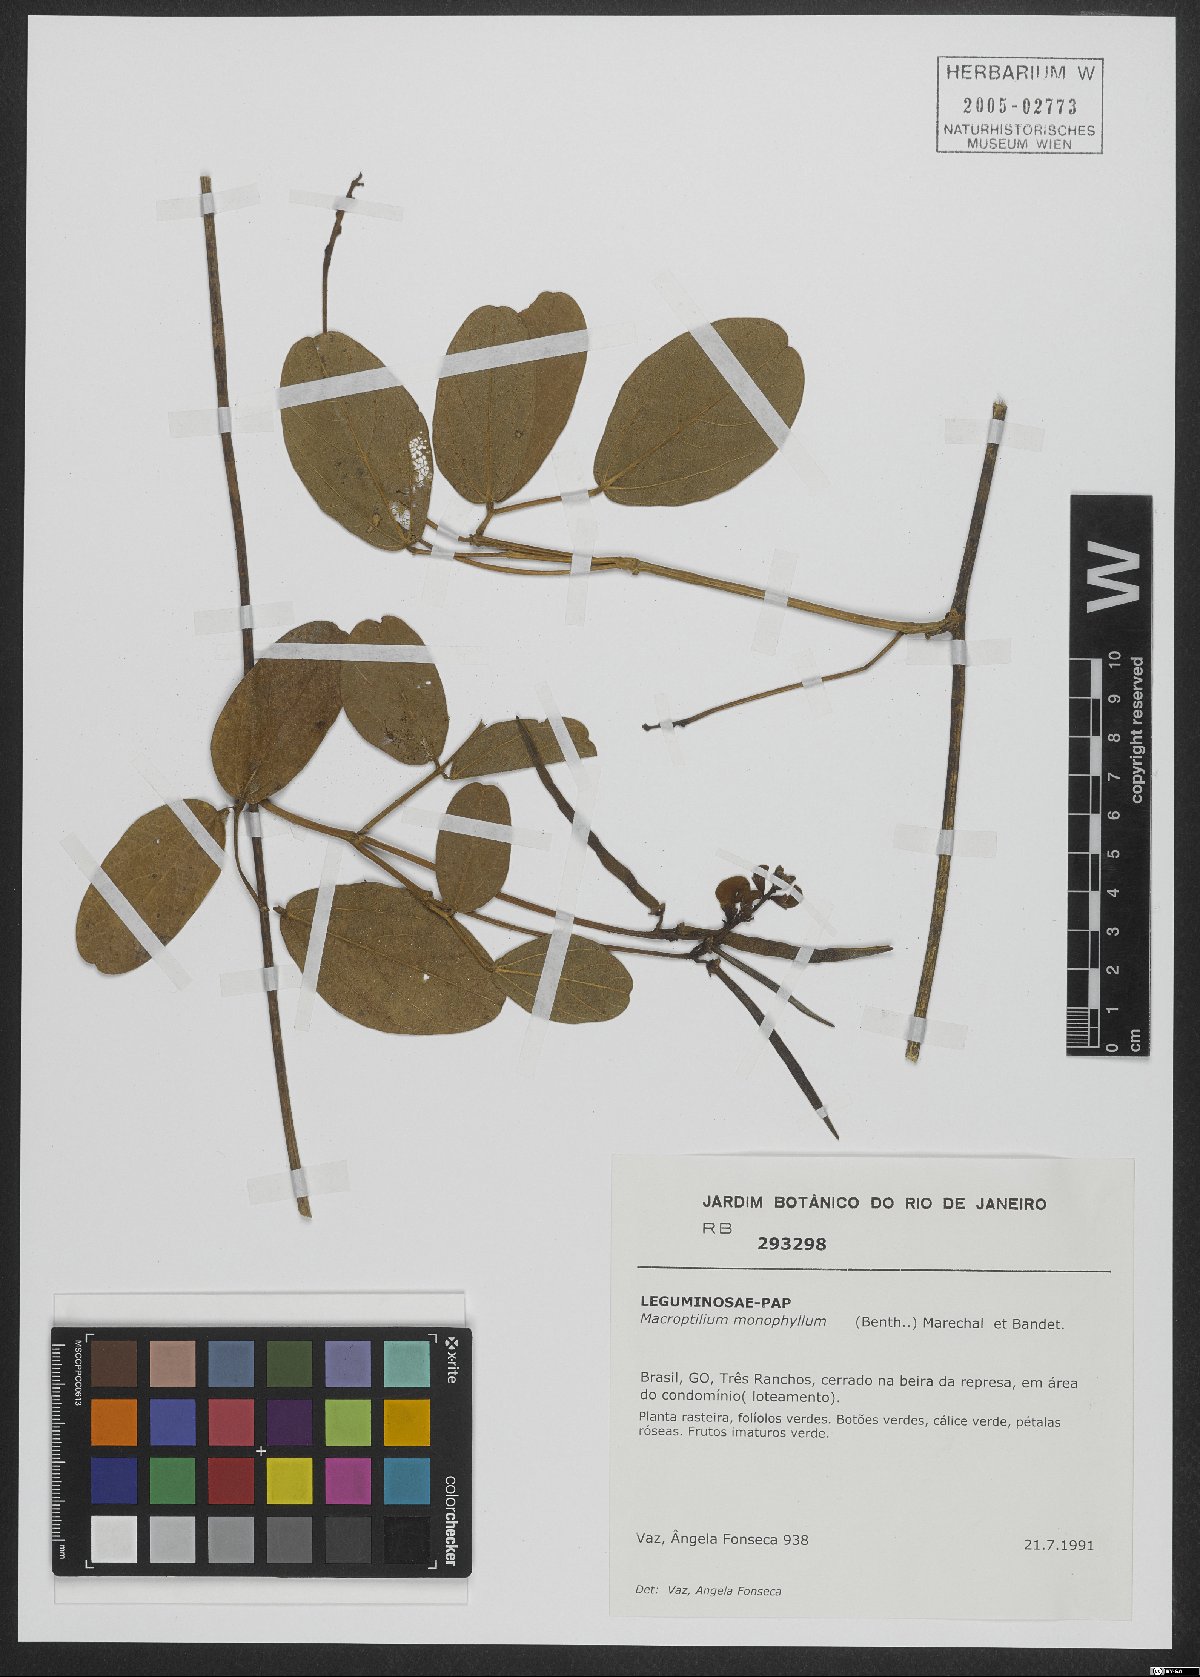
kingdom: Plantae
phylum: Tracheophyta
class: Magnoliopsida
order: Fabales
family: Fabaceae
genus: Macroptilium
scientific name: Macroptilium monophyllum
